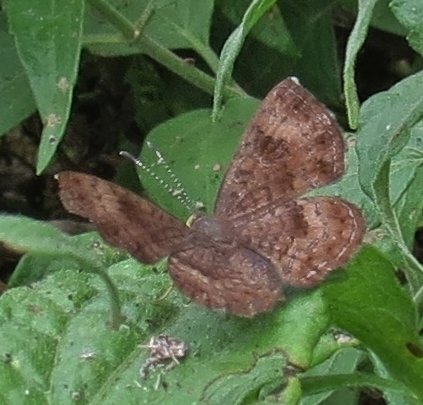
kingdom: Animalia
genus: Calephelis
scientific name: Calephelis nemesis
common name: Fatal Metalmark
